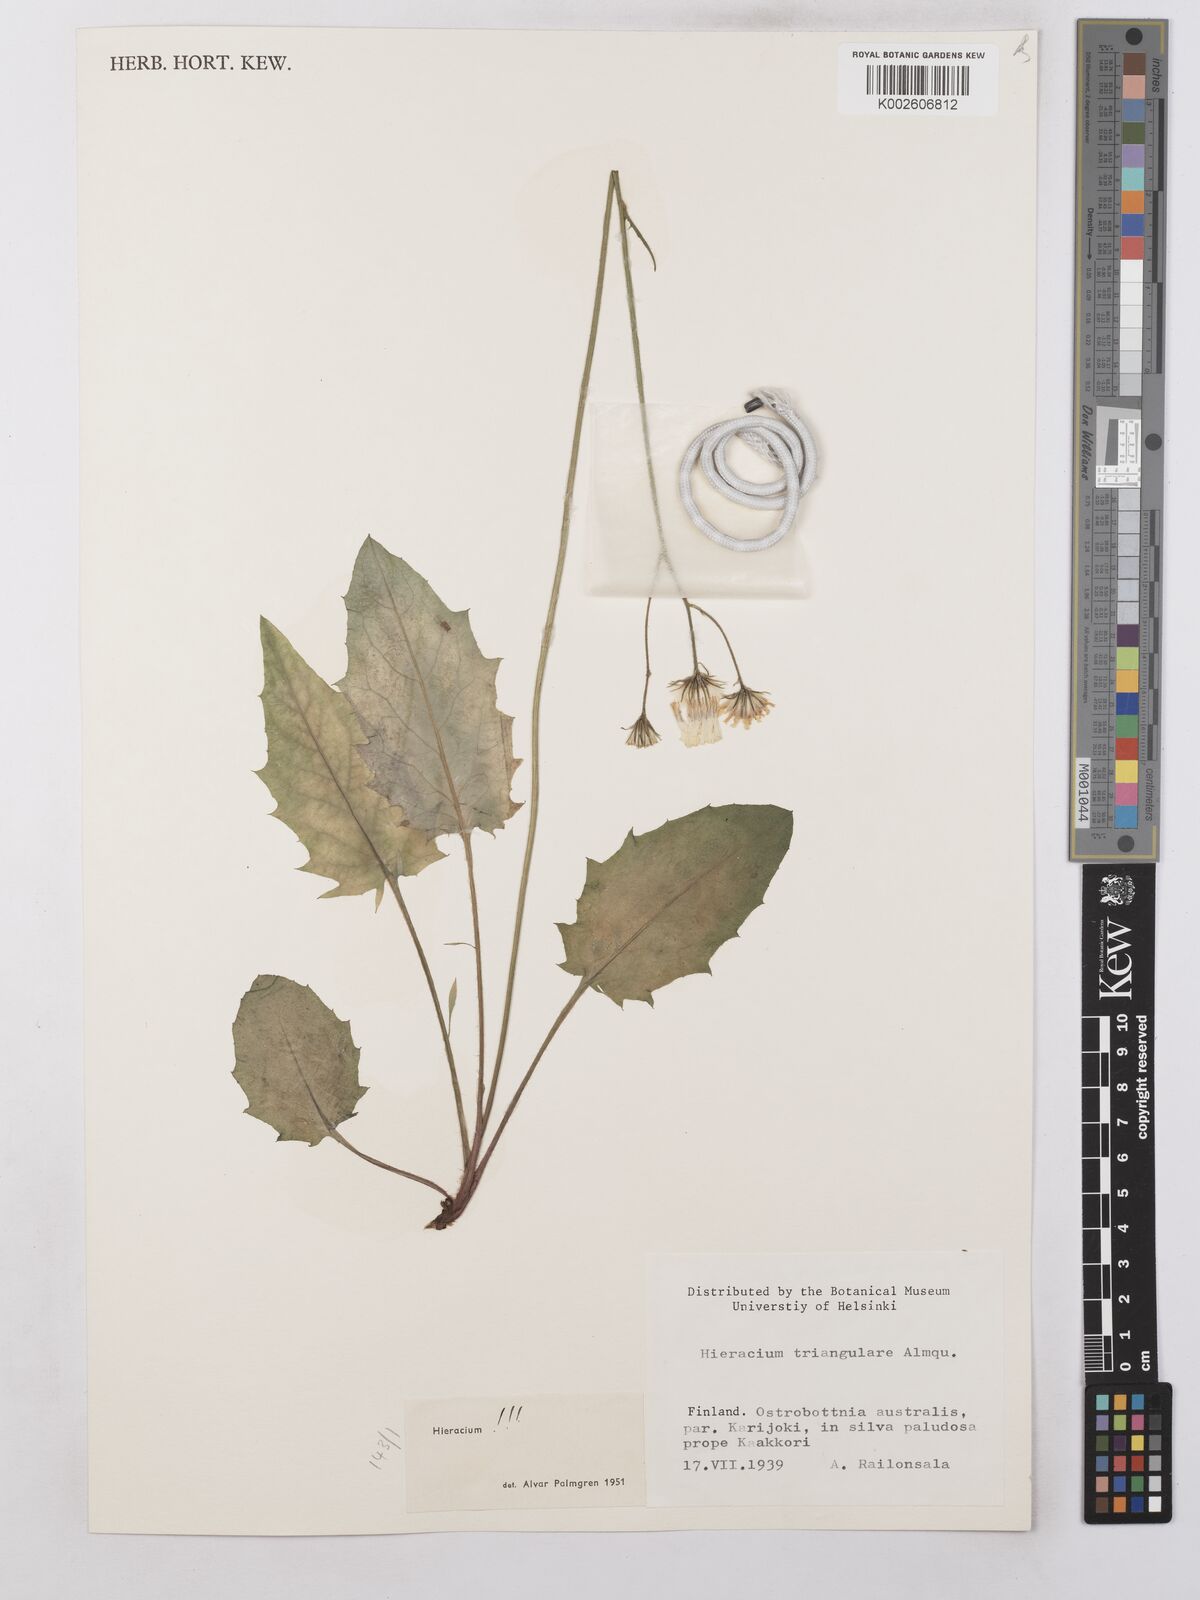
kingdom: Plantae
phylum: Tracheophyta
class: Magnoliopsida
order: Asterales
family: Asteraceae
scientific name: Asteraceae
